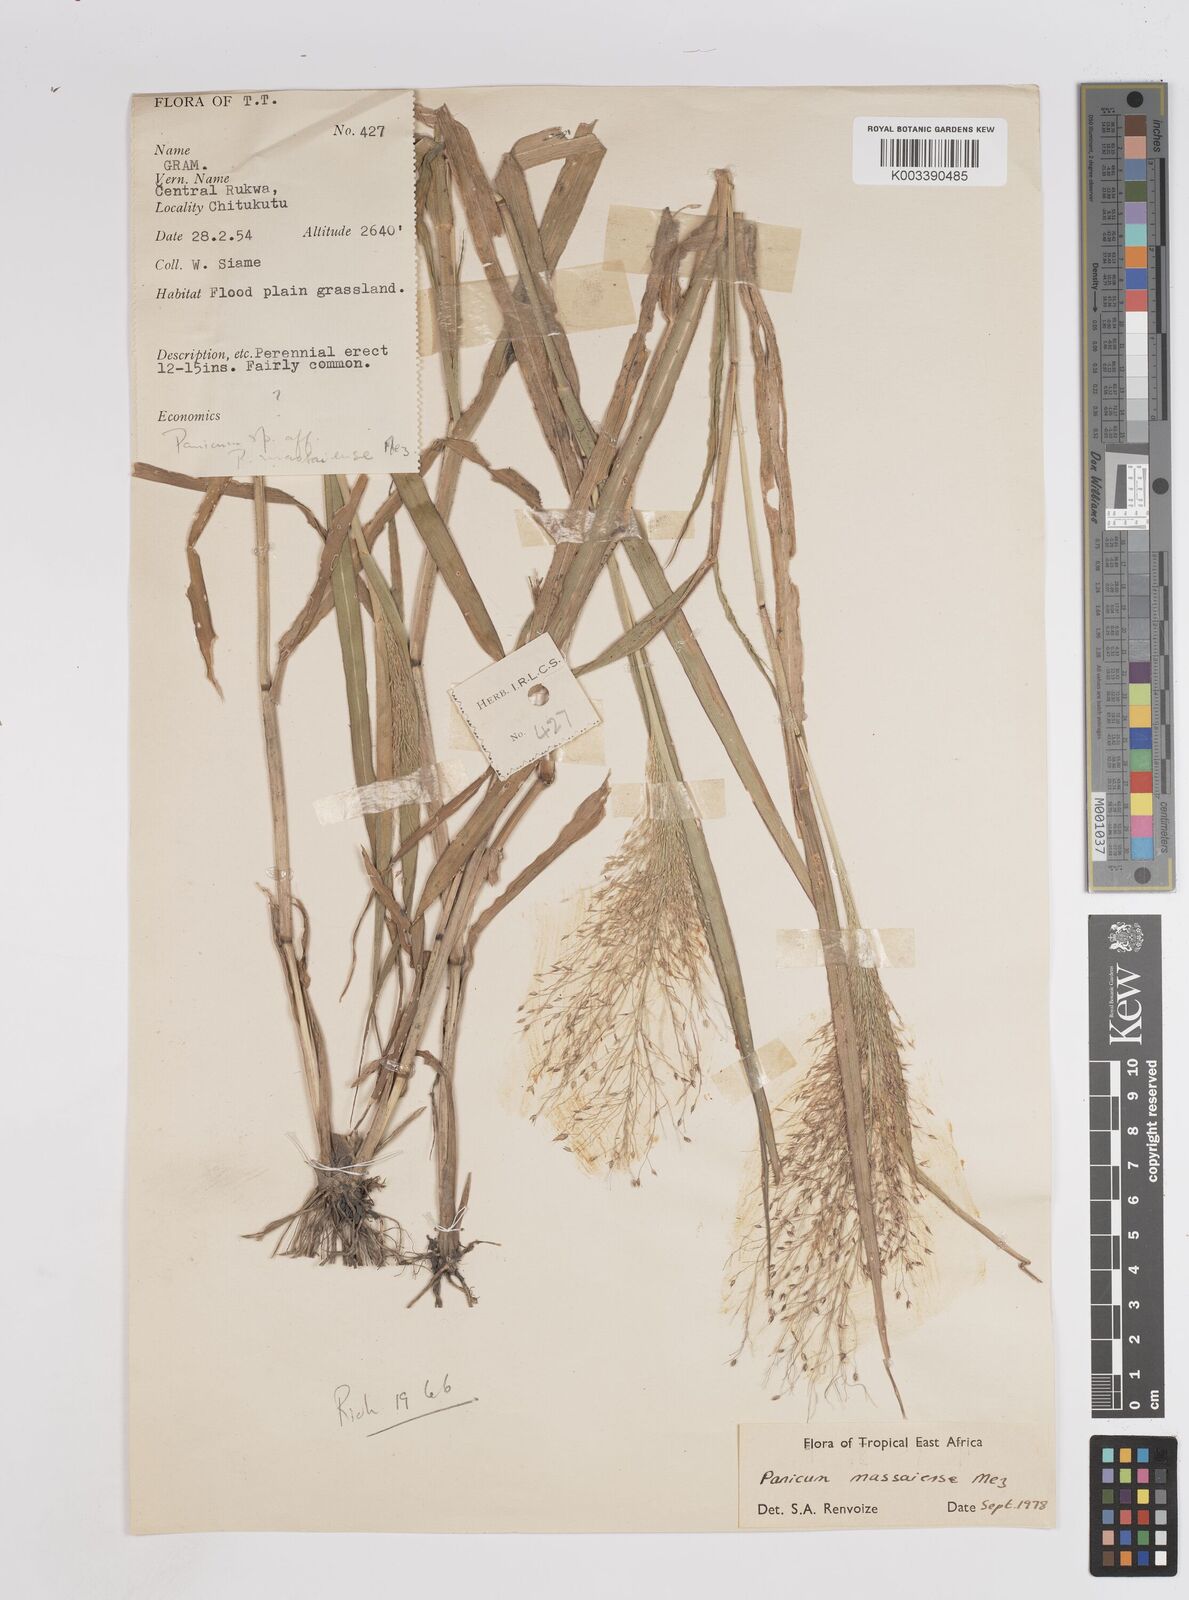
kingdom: Plantae
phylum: Tracheophyta
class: Liliopsida
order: Poales
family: Poaceae
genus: Panicum
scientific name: Panicum massaiense
